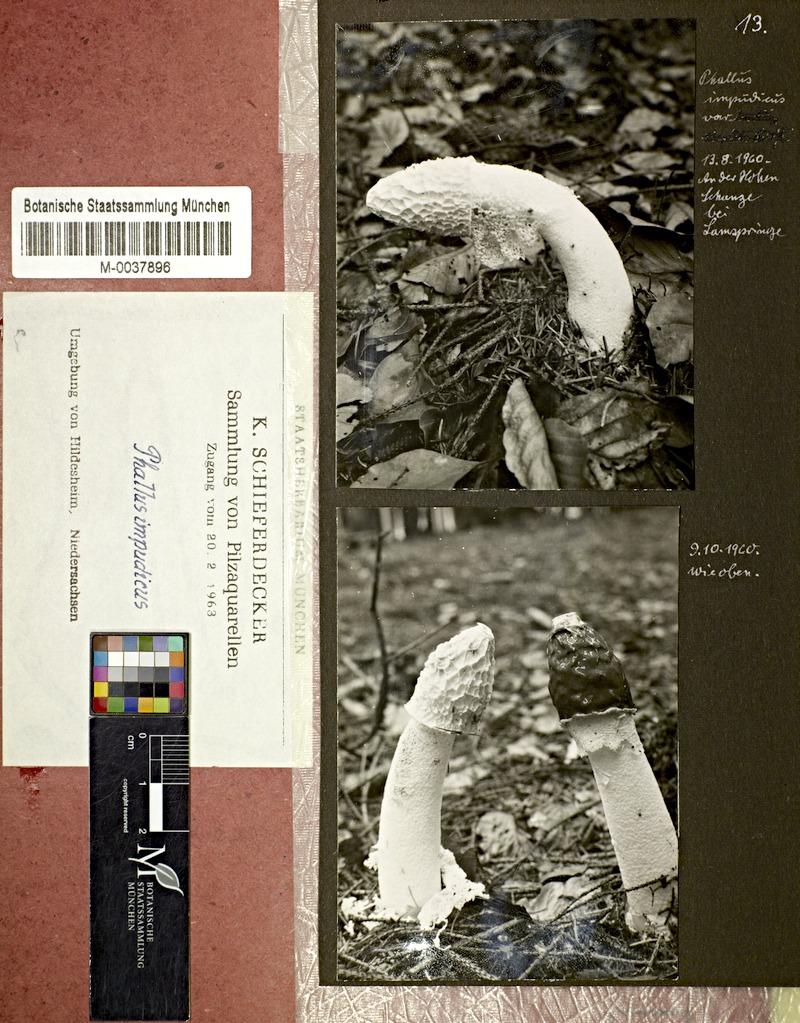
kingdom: Fungi
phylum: Basidiomycota
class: Agaricomycetes
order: Phallales
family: Phallaceae
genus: Phallus
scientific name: Phallus impudicus
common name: Common stinkhorn
